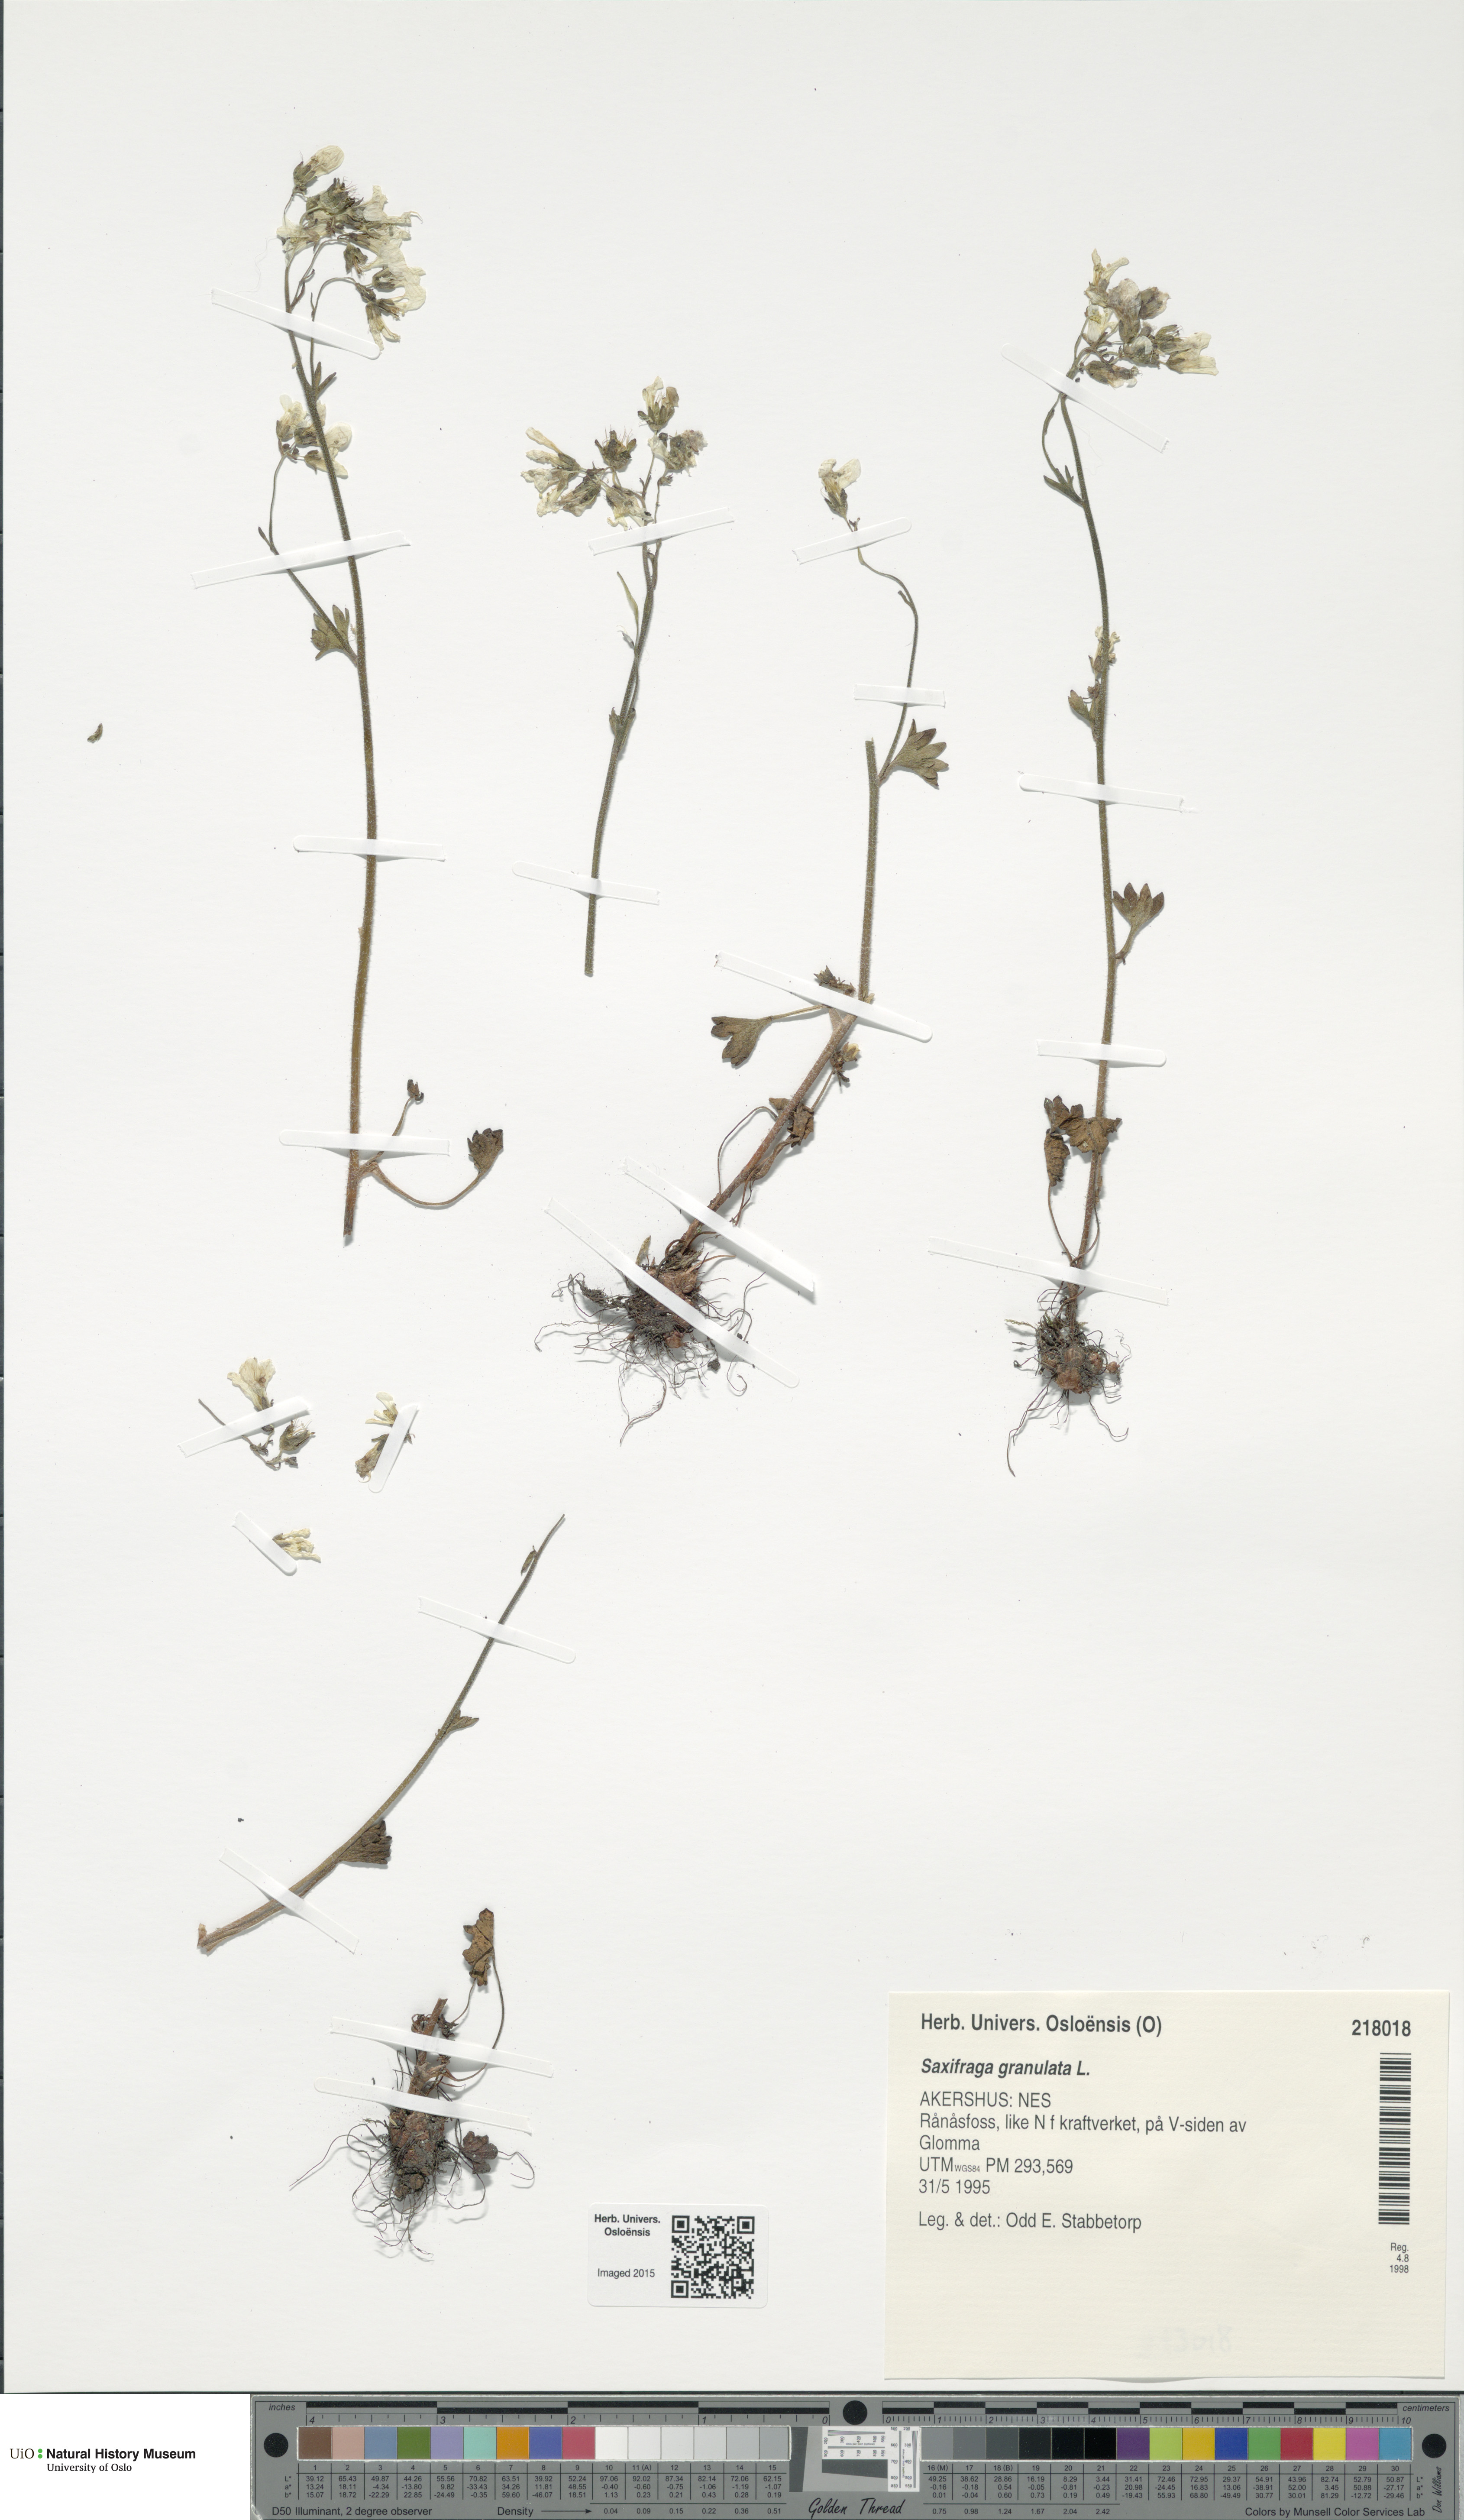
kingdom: Plantae
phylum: Tracheophyta
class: Magnoliopsida
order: Saxifragales
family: Saxifragaceae
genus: Saxifraga
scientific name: Saxifraga granulata
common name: Meadow saxifrage
